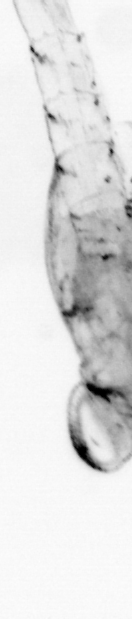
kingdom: Animalia
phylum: Arthropoda
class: Malacostraca
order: Decapoda
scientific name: Decapoda
